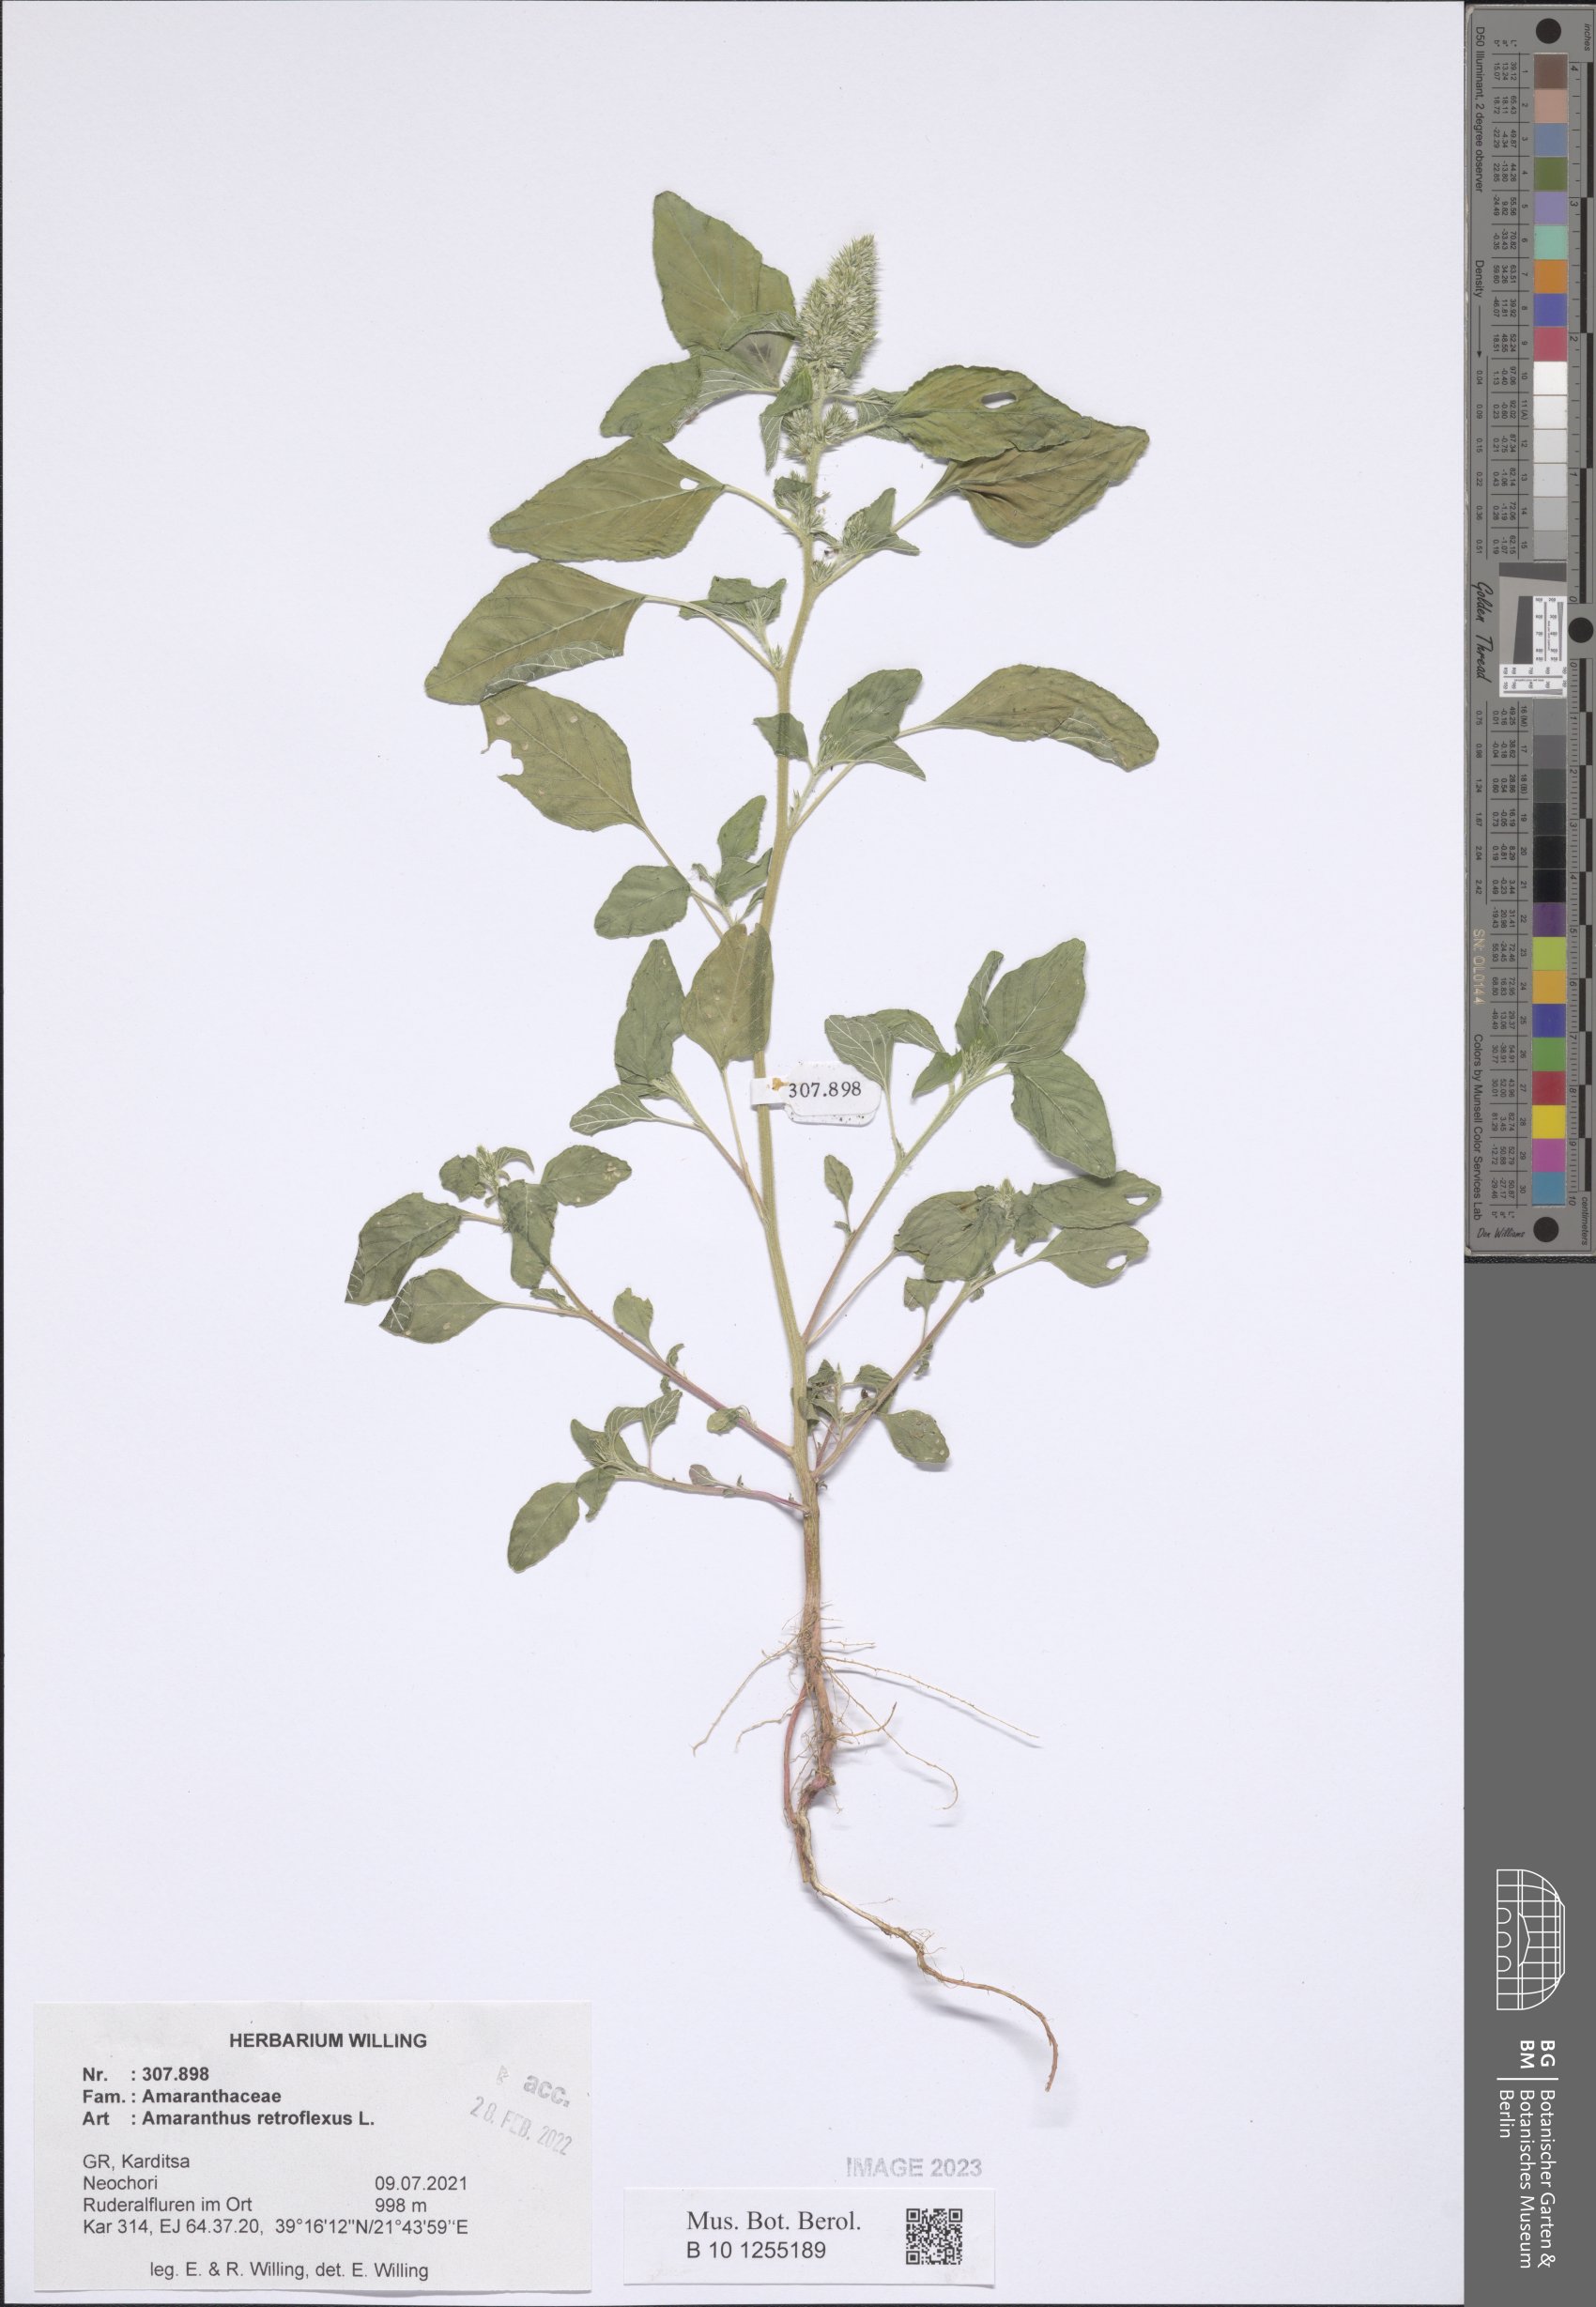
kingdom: Plantae
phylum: Tracheophyta
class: Magnoliopsida
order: Caryophyllales
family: Amaranthaceae
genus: Amaranthus
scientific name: Amaranthus retroflexus
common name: Redroot amaranth
